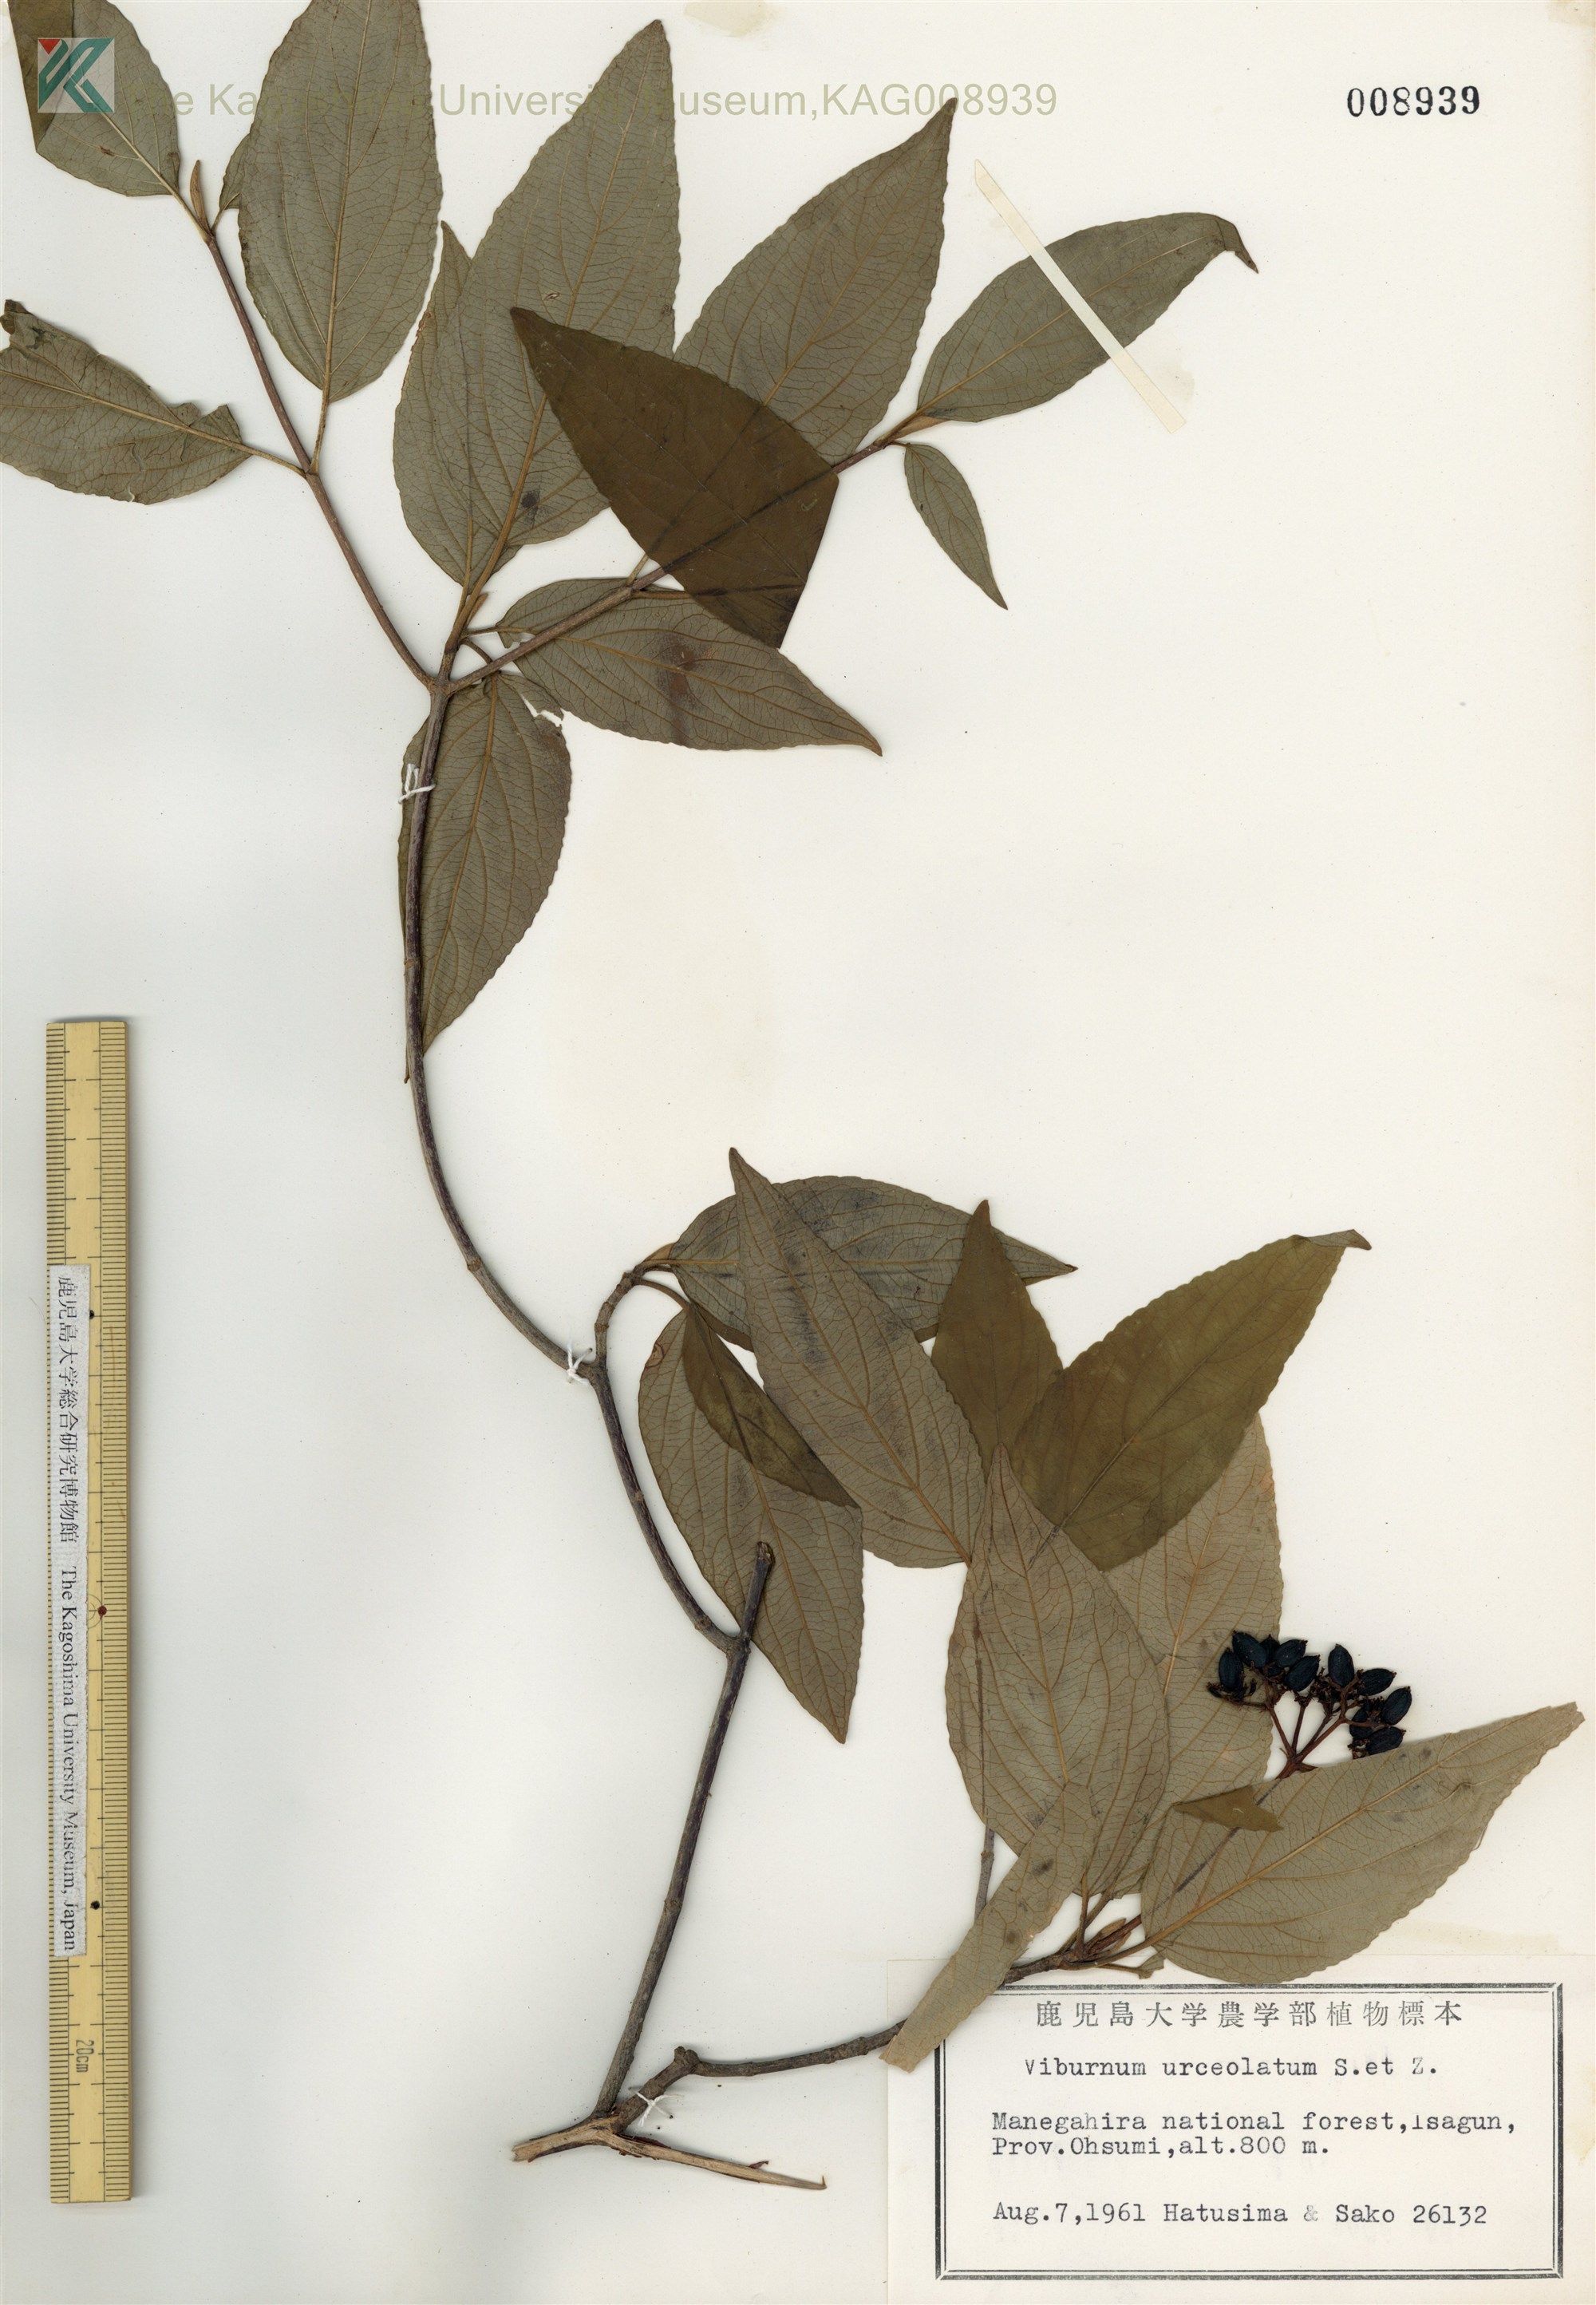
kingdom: Plantae
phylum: Tracheophyta
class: Magnoliopsida
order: Dipsacales
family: Viburnaceae
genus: Viburnum
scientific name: Viburnum urceolatum
